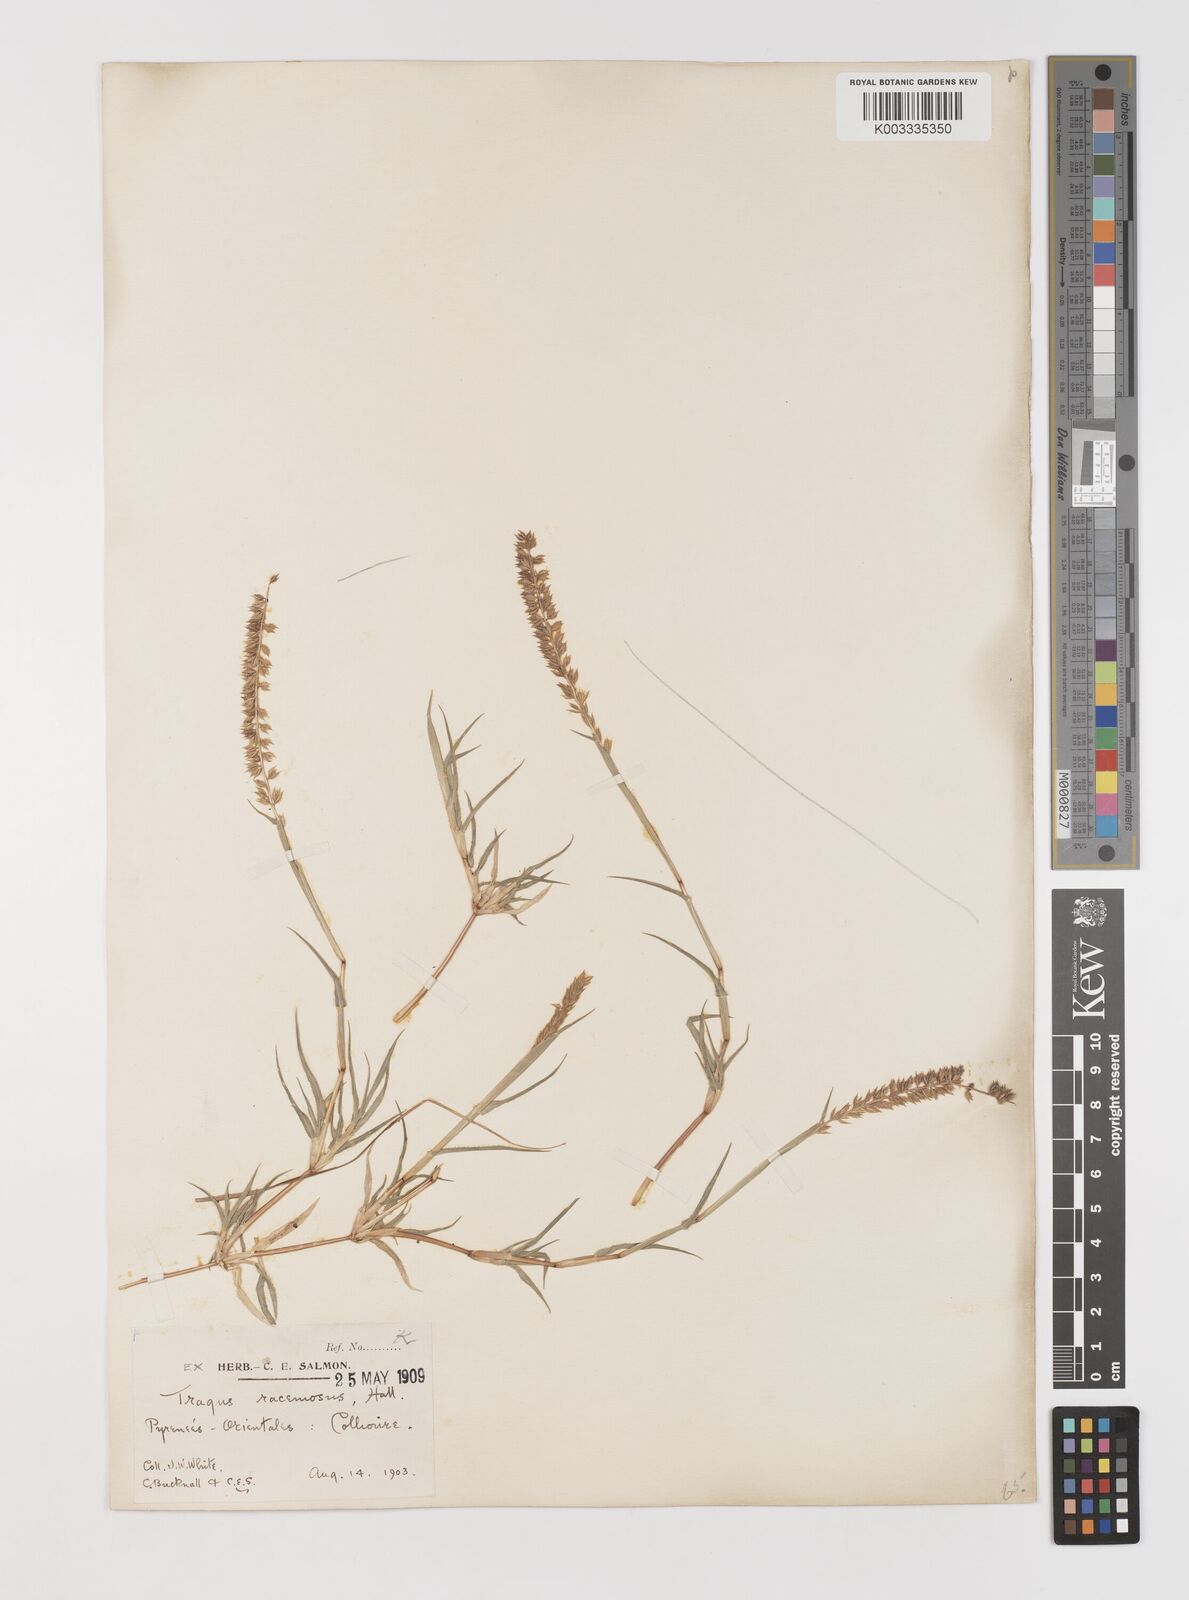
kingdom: Plantae
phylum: Tracheophyta
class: Liliopsida
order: Poales
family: Poaceae
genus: Tragus
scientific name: Tragus racemosus
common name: European bur-grass
